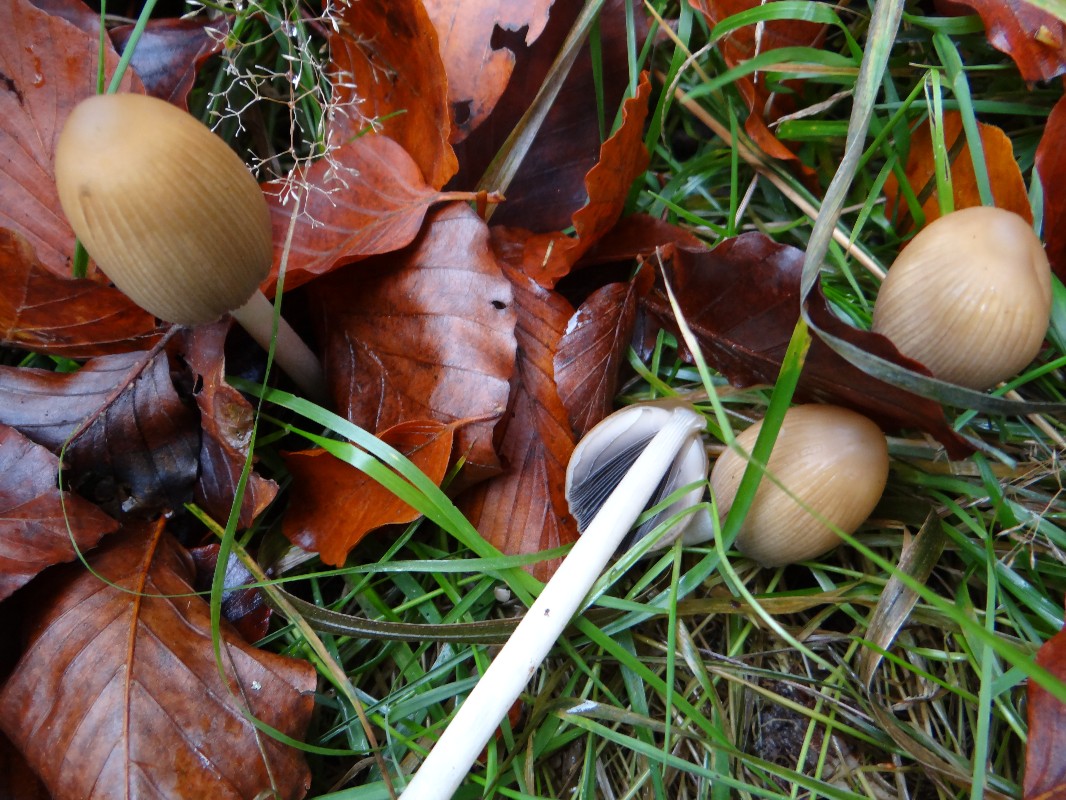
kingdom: Fungi
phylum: Basidiomycota
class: Agaricomycetes
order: Agaricales
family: Psathyrellaceae
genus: Coprinellus
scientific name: Coprinellus
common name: blækhat
